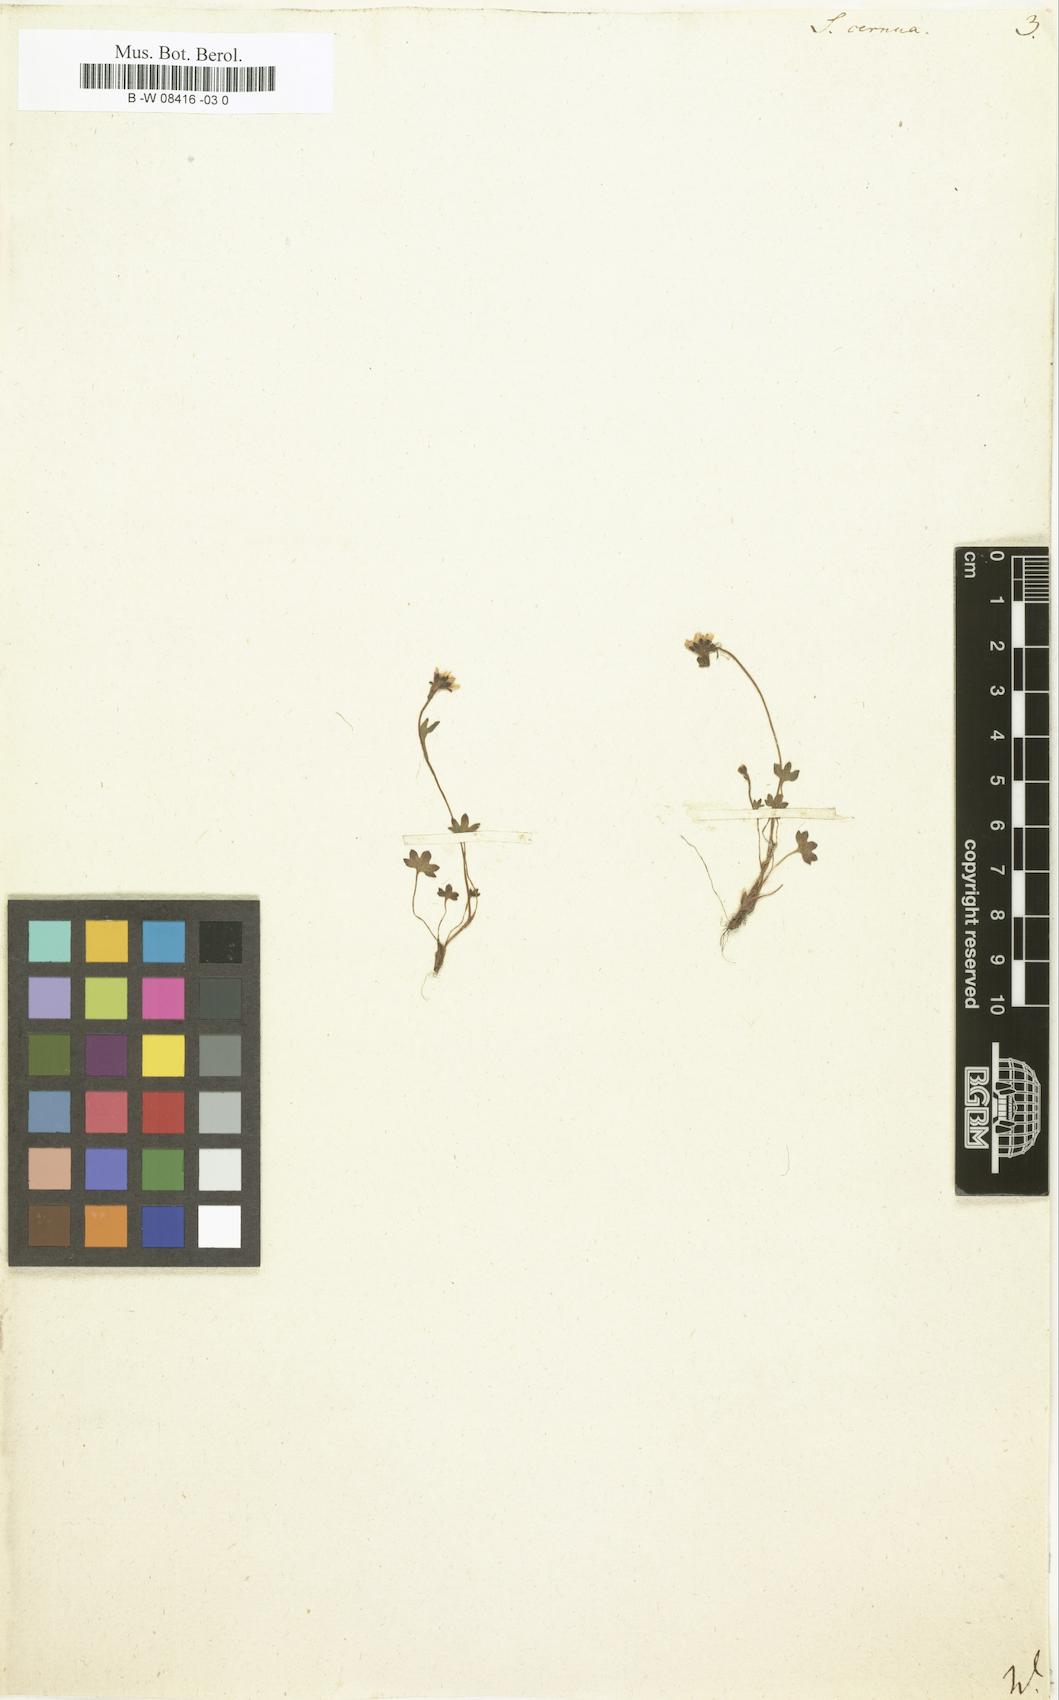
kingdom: Plantae
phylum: Tracheophyta
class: Magnoliopsida
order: Saxifragales
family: Saxifragaceae
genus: Saxifraga
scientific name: Saxifraga cernua
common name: Drooping saxifrage
